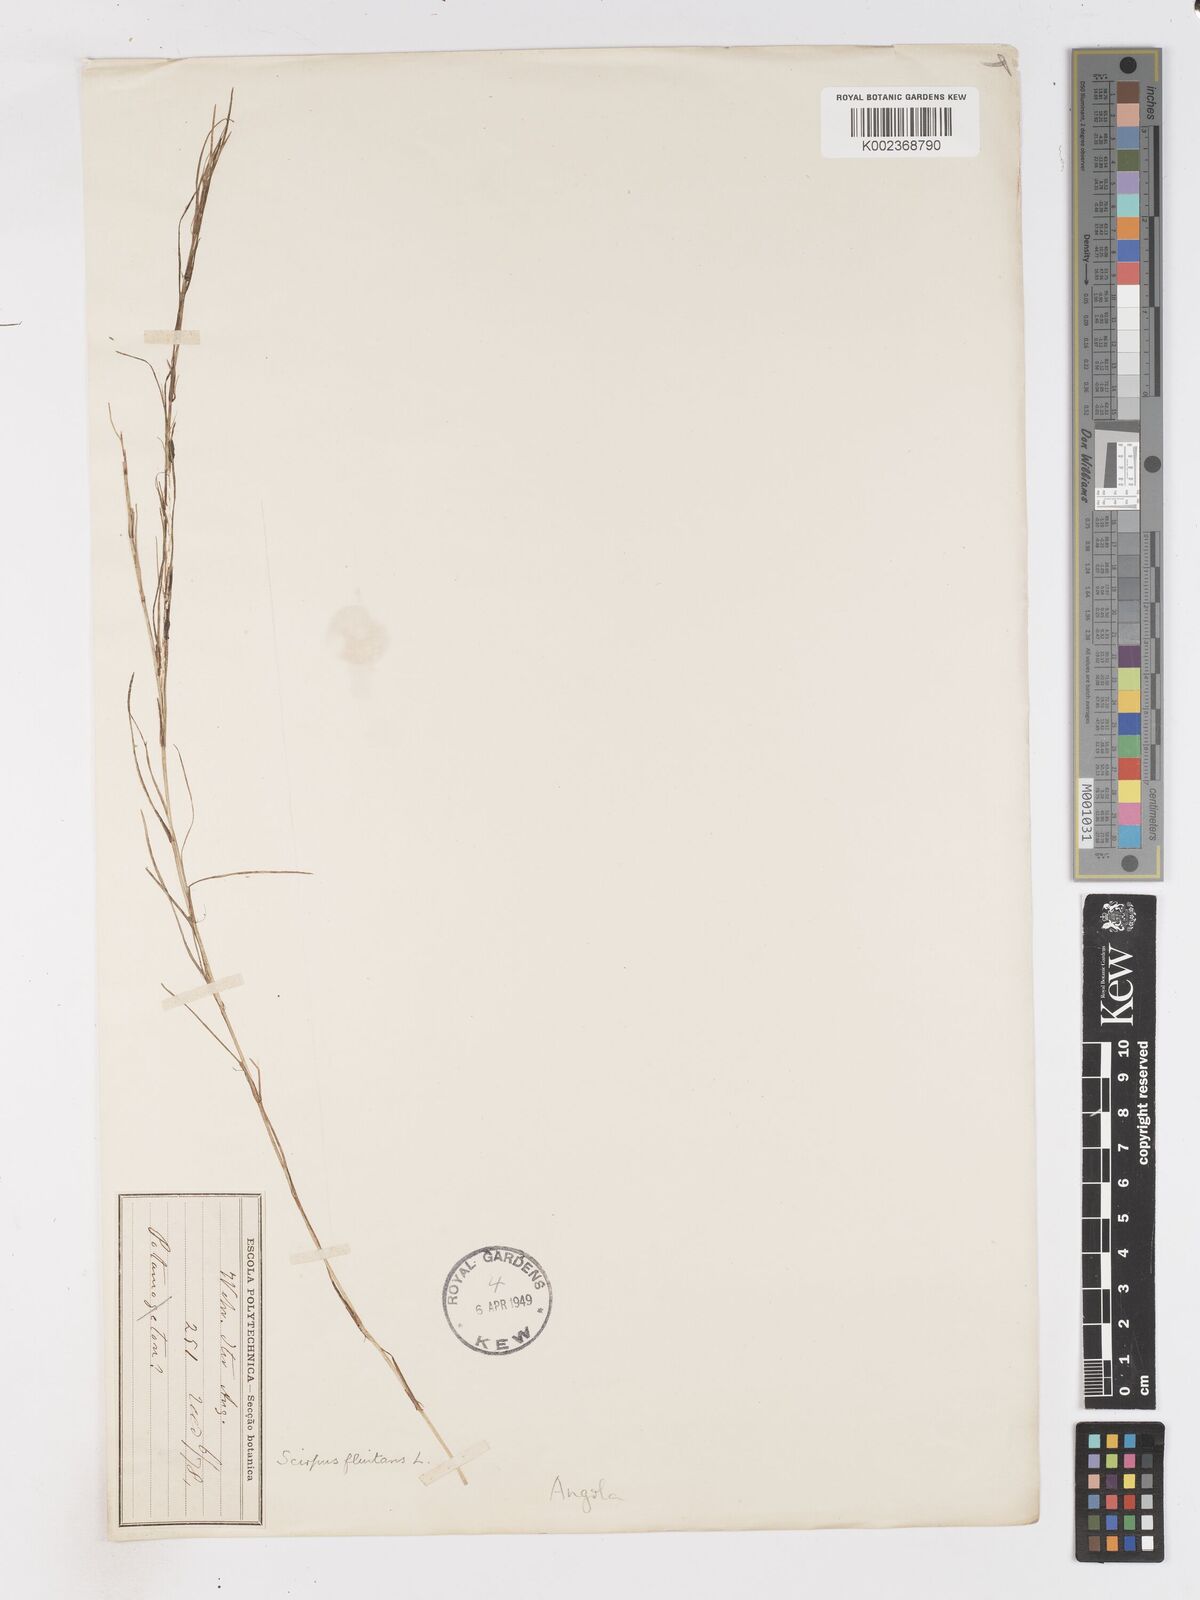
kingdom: Plantae
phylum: Tracheophyta
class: Liliopsida
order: Poales
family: Cyperaceae
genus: Isolepis
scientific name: Isolepis fluitans
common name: Floating club-rush
